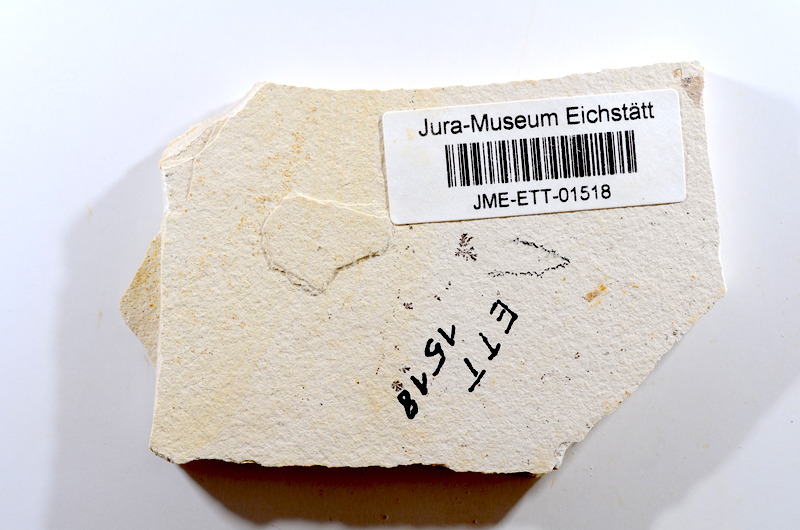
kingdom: Animalia
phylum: Chordata
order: Salmoniformes
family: Orthogonikleithridae
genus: Orthogonikleithrus
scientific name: Orthogonikleithrus hoelli
